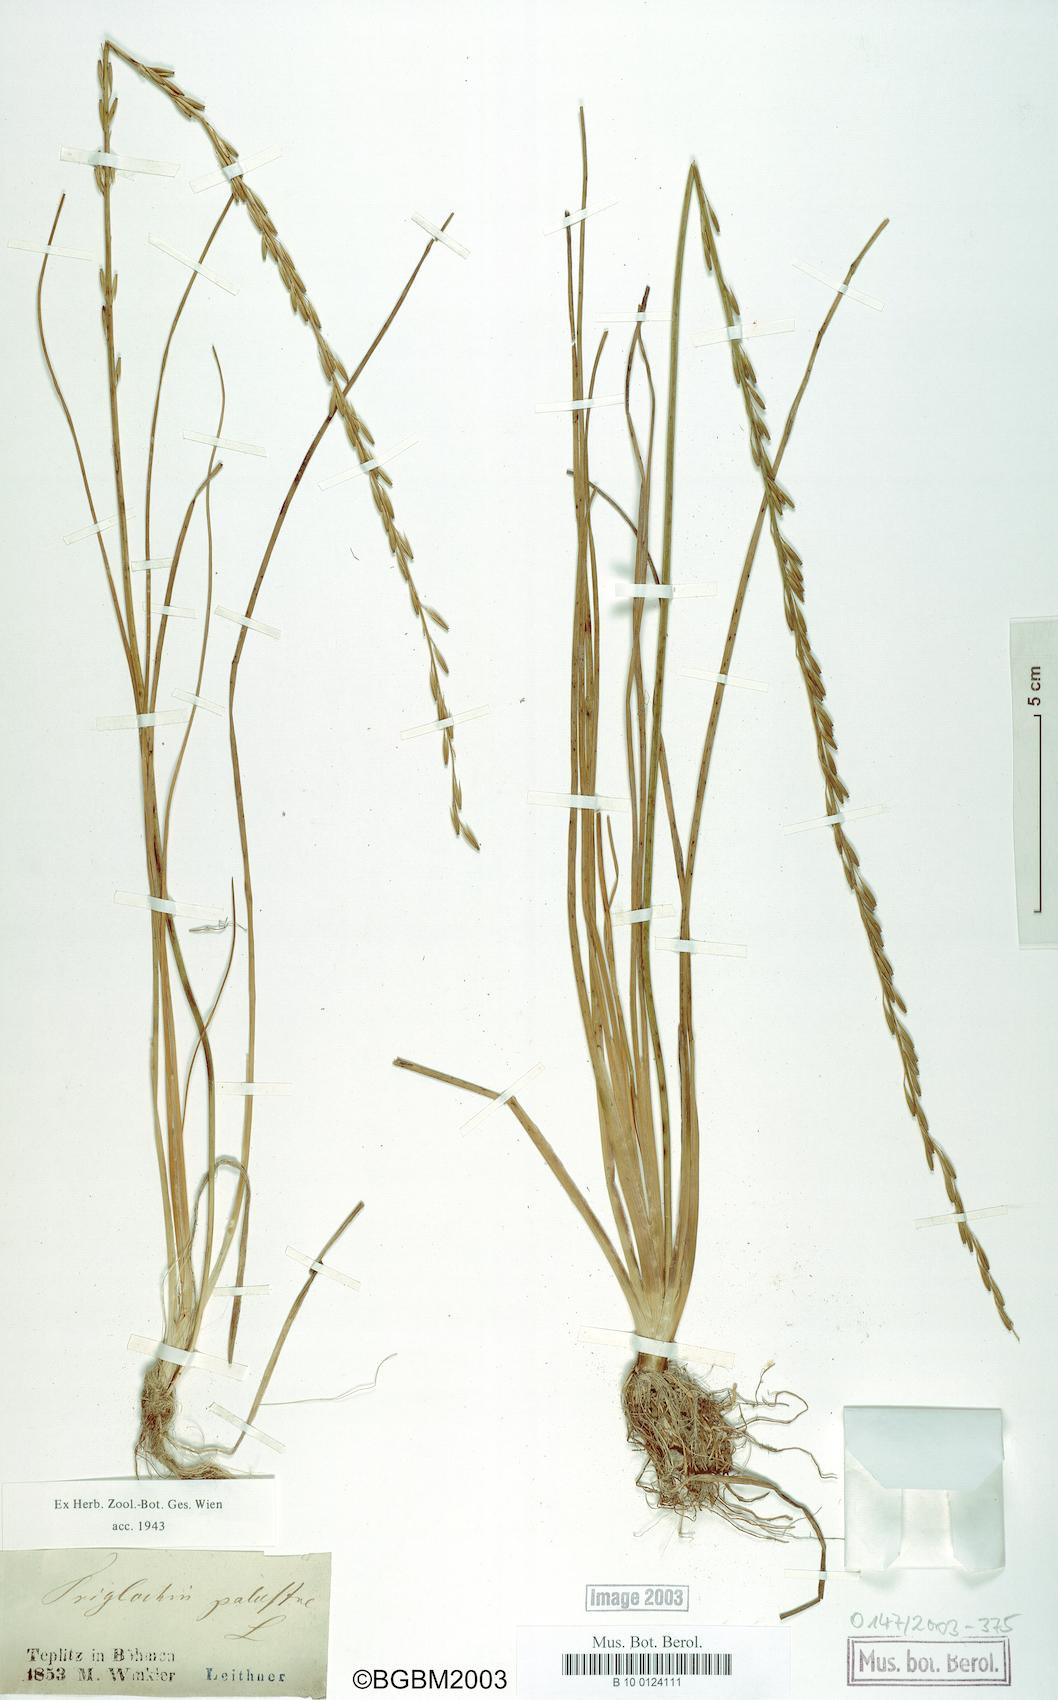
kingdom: Plantae
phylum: Tracheophyta
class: Liliopsida
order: Alismatales
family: Juncaginaceae
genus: Triglochin
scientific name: Triglochin palustris
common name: Marsh arrowgrass
